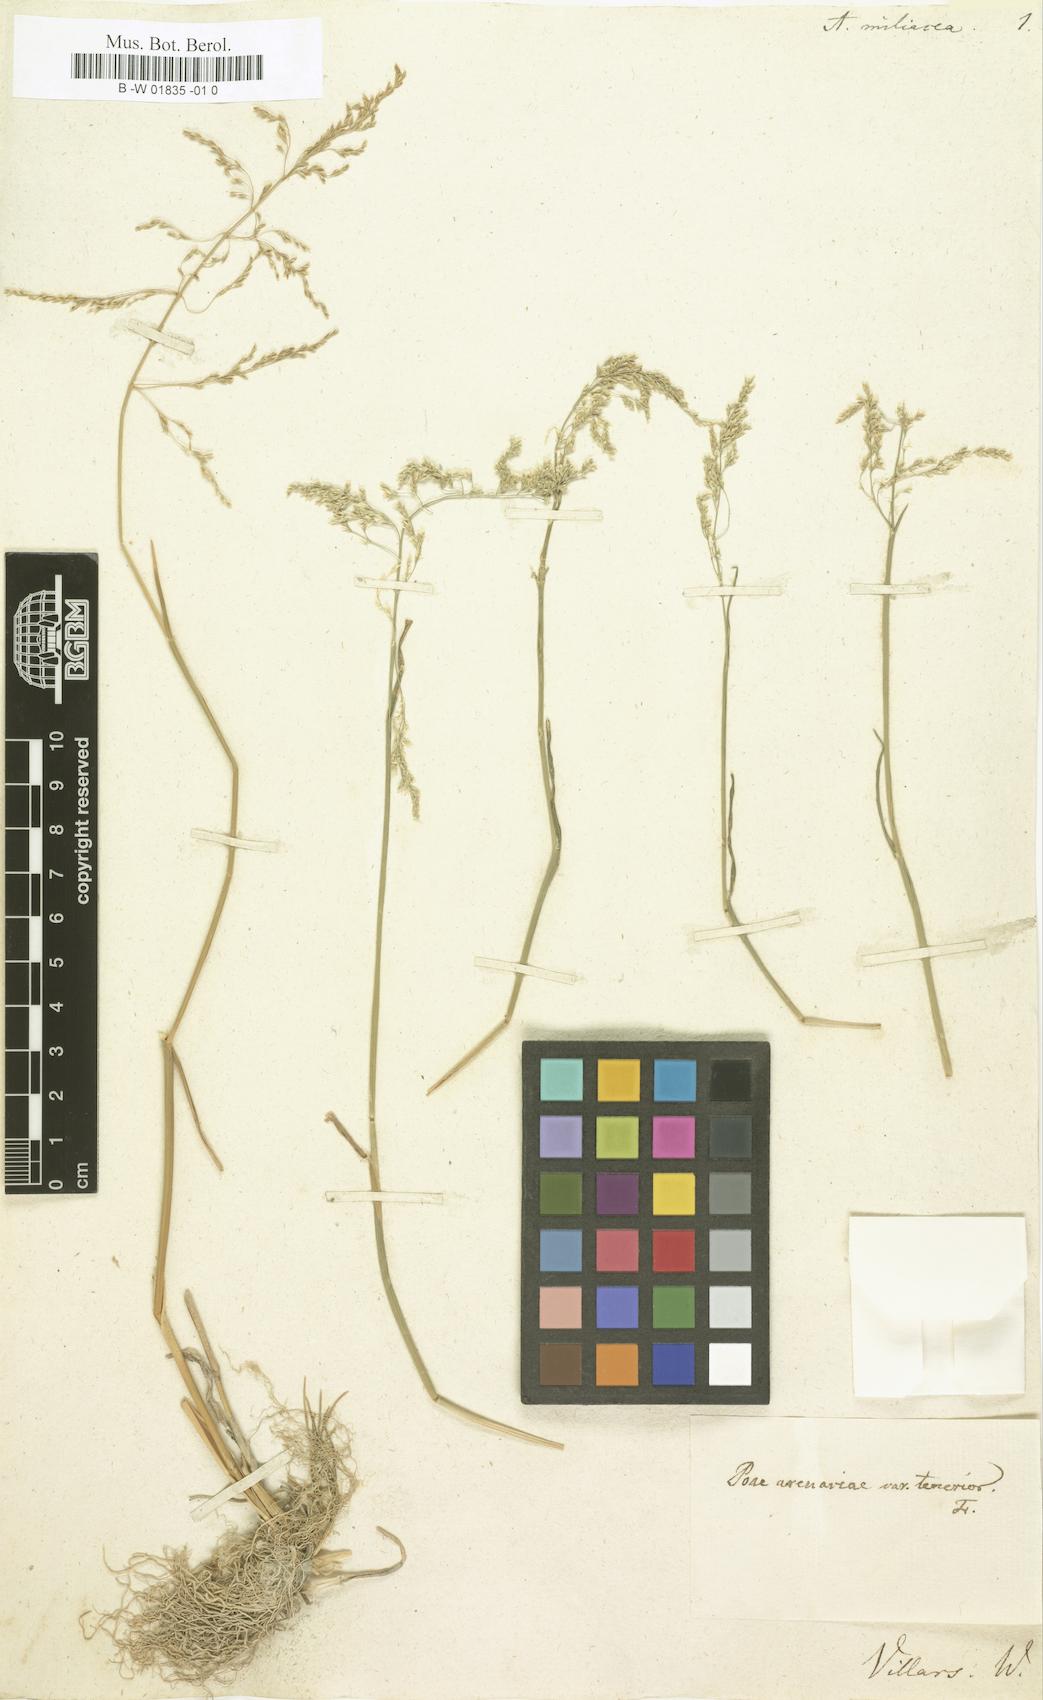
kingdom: Plantae
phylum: Tracheophyta
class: Liliopsida
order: Poales
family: Poaceae
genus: Puccinellia
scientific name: Puccinellia distans
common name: Weeping alkaligrass
